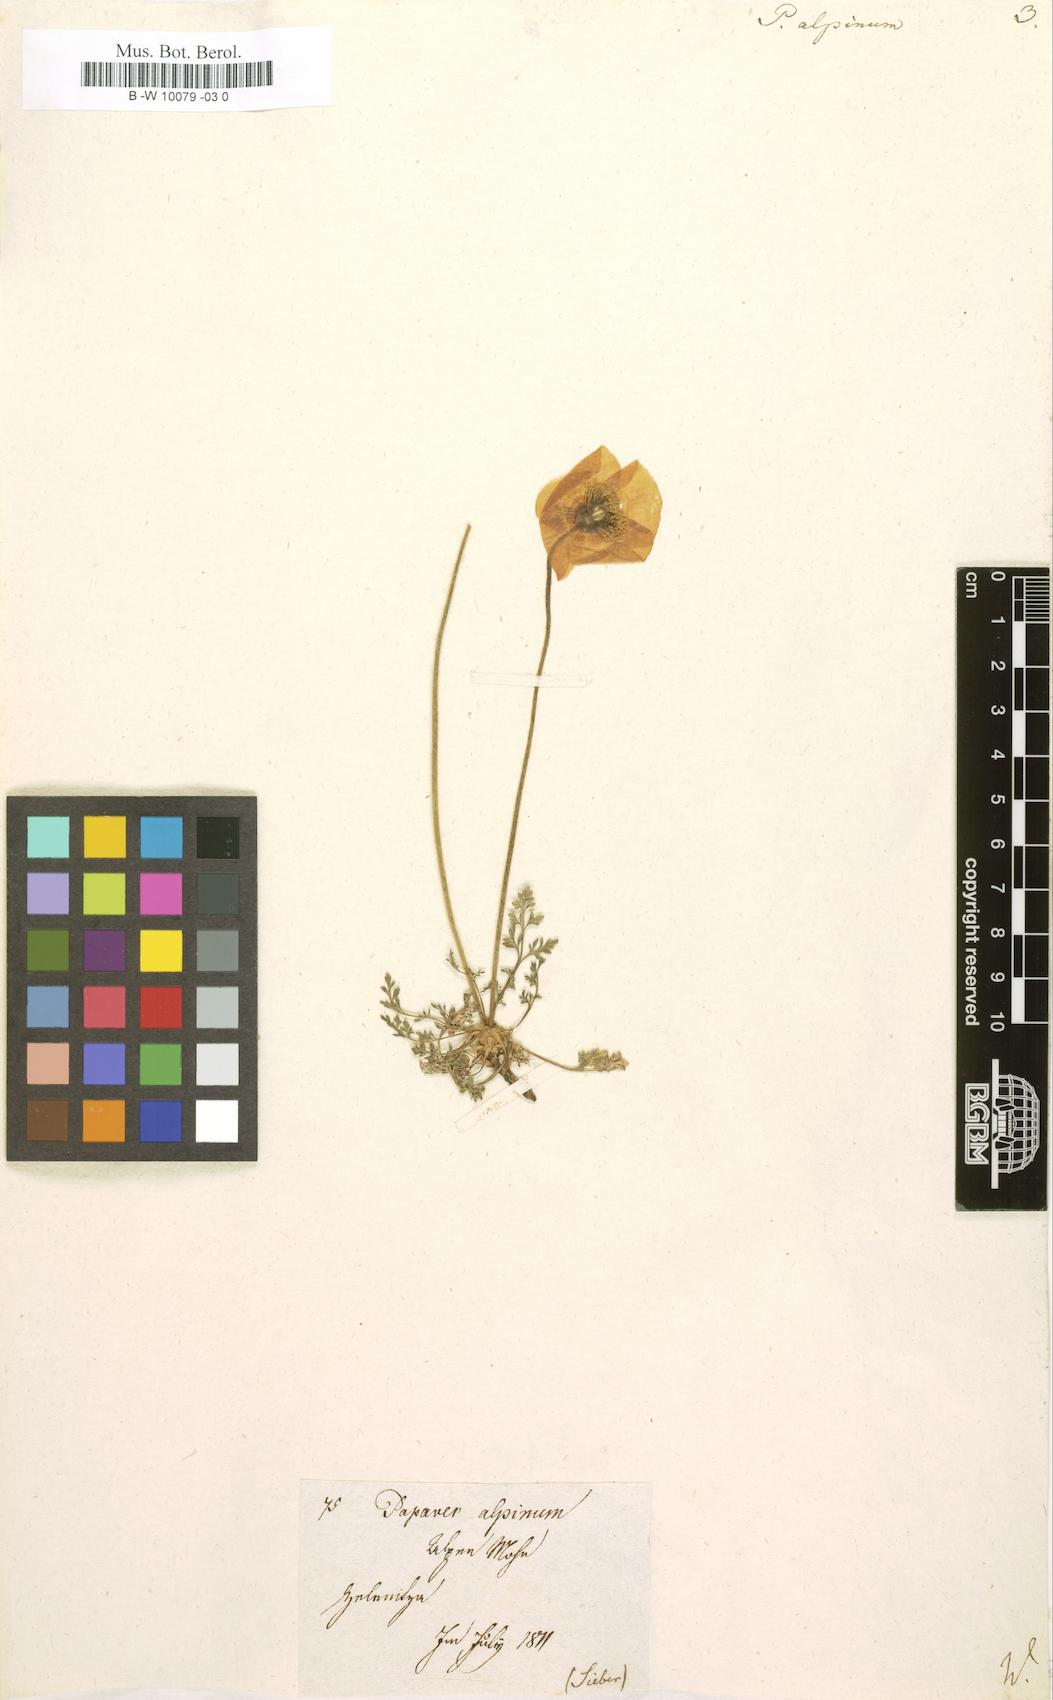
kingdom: Plantae
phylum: Tracheophyta
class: Magnoliopsida
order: Ranunculales
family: Papaveraceae
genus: Papaver
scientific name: Papaver alpinum
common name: Austrian poppy
